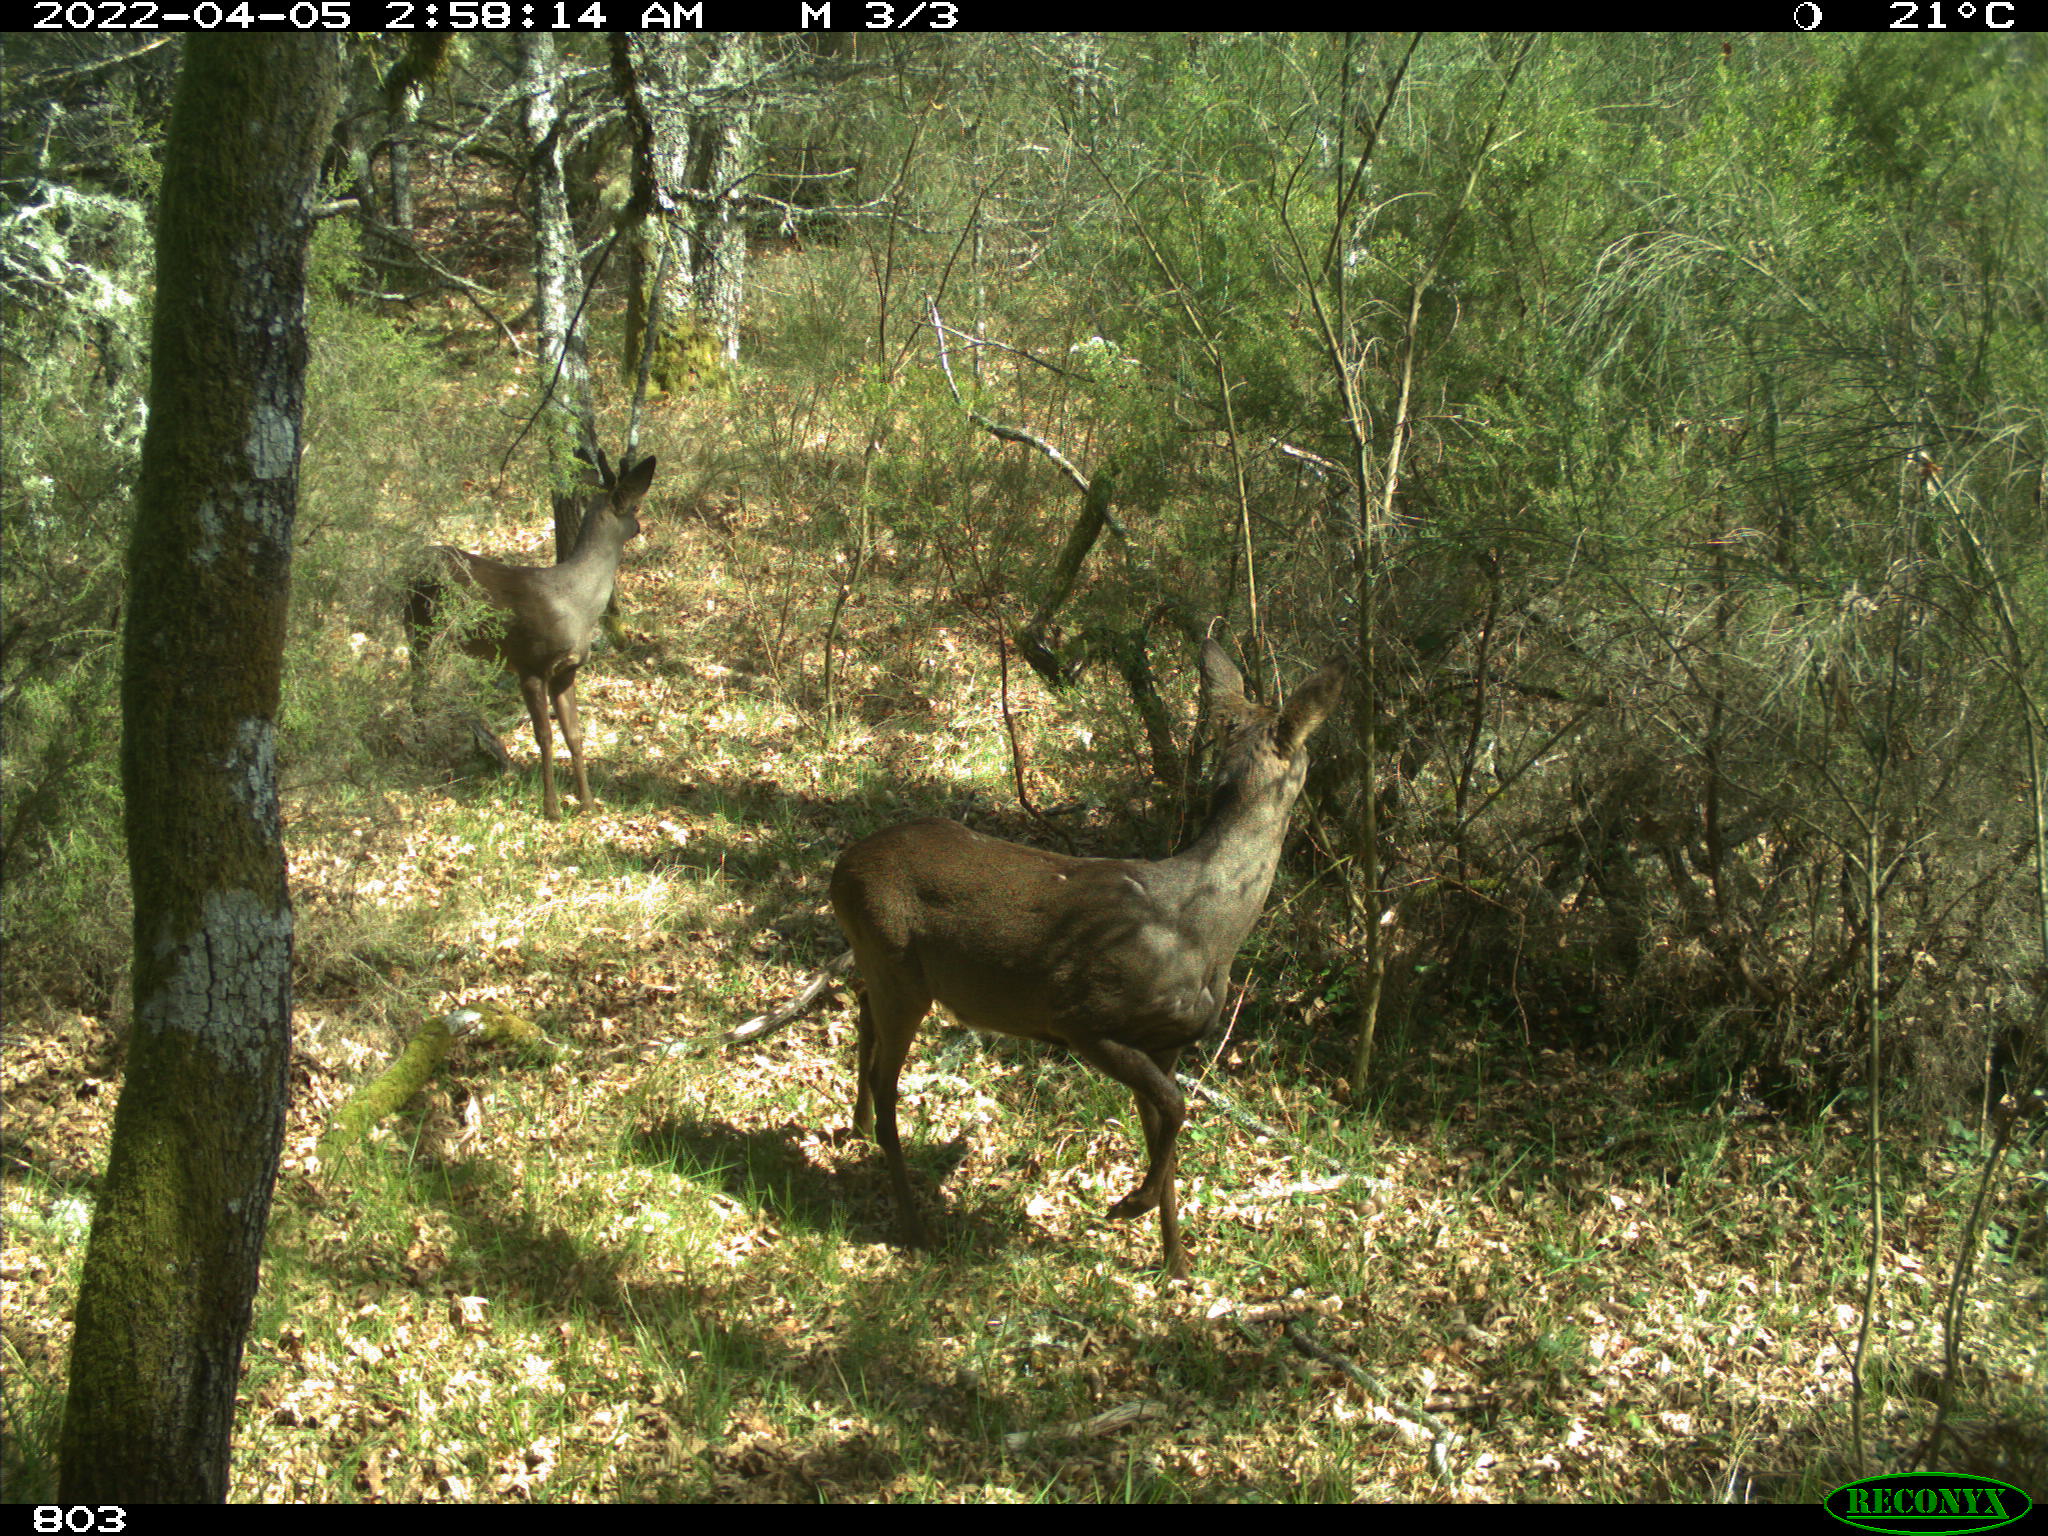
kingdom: Animalia
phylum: Chordata
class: Mammalia
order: Artiodactyla
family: Cervidae
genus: Capreolus
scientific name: Capreolus capreolus
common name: Western roe deer
